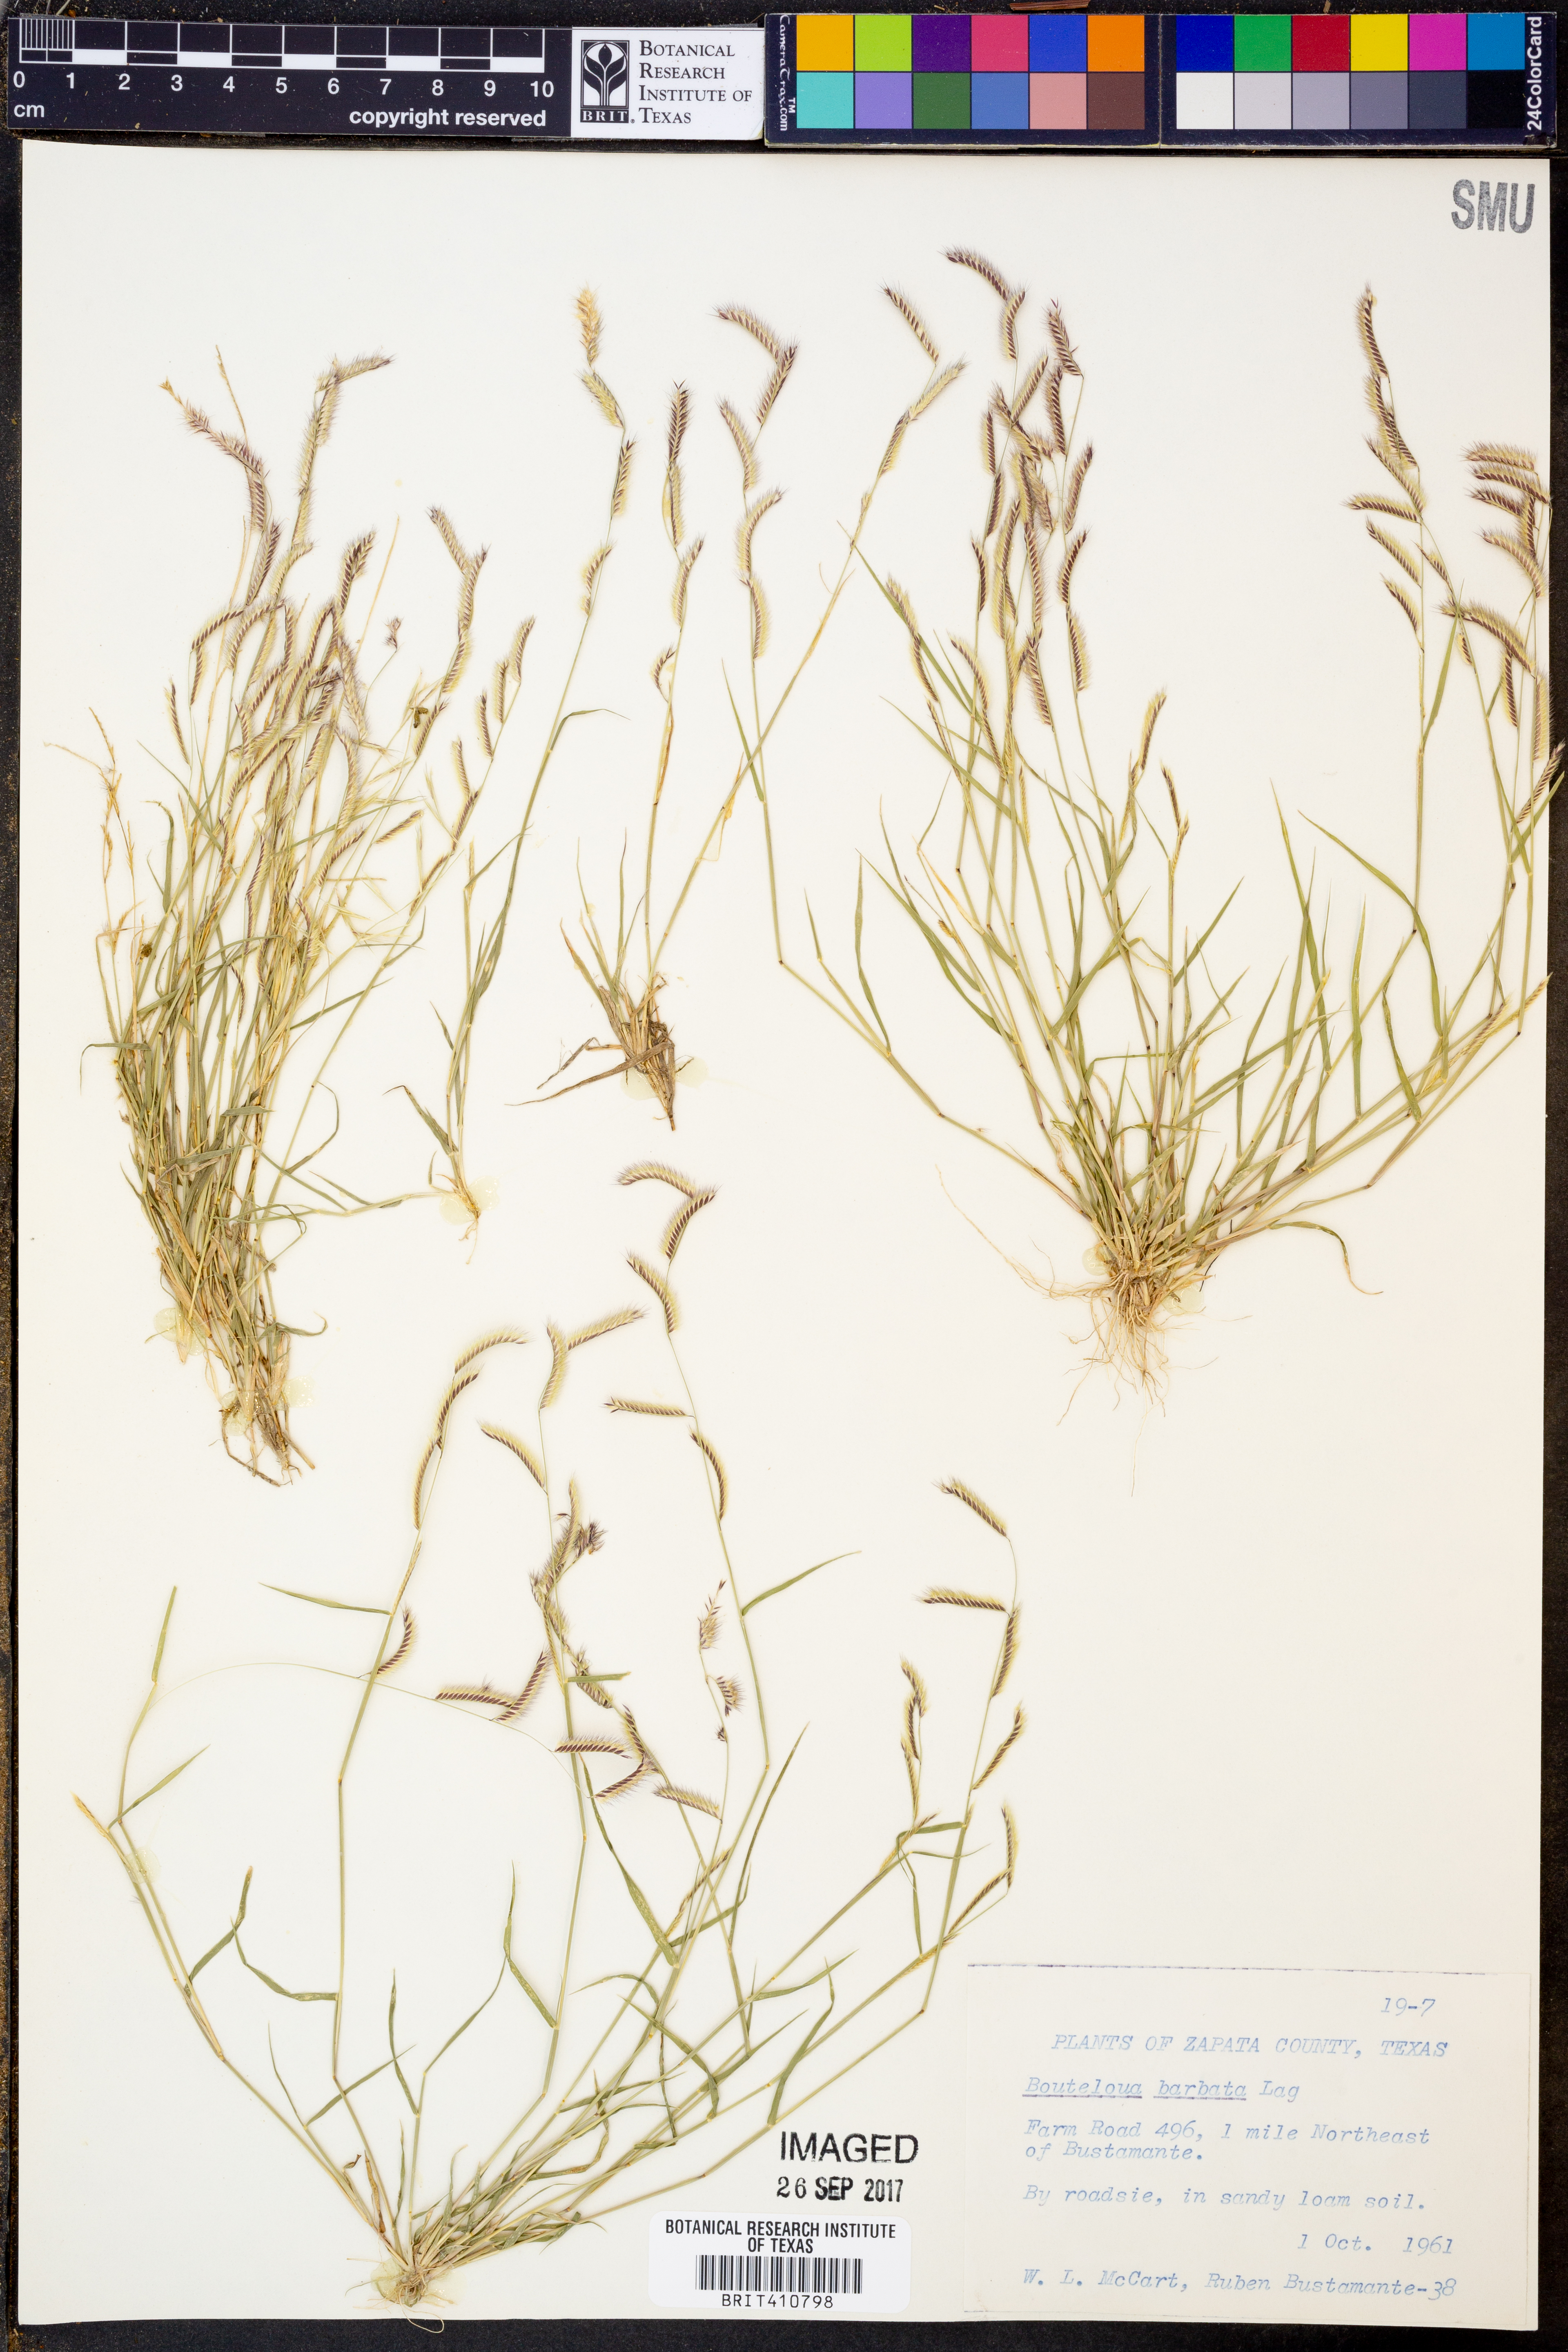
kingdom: Plantae
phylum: Tracheophyta
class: Liliopsida
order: Poales
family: Poaceae
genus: Bouteloua
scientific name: Bouteloua barbata
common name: Six-weeks grama
